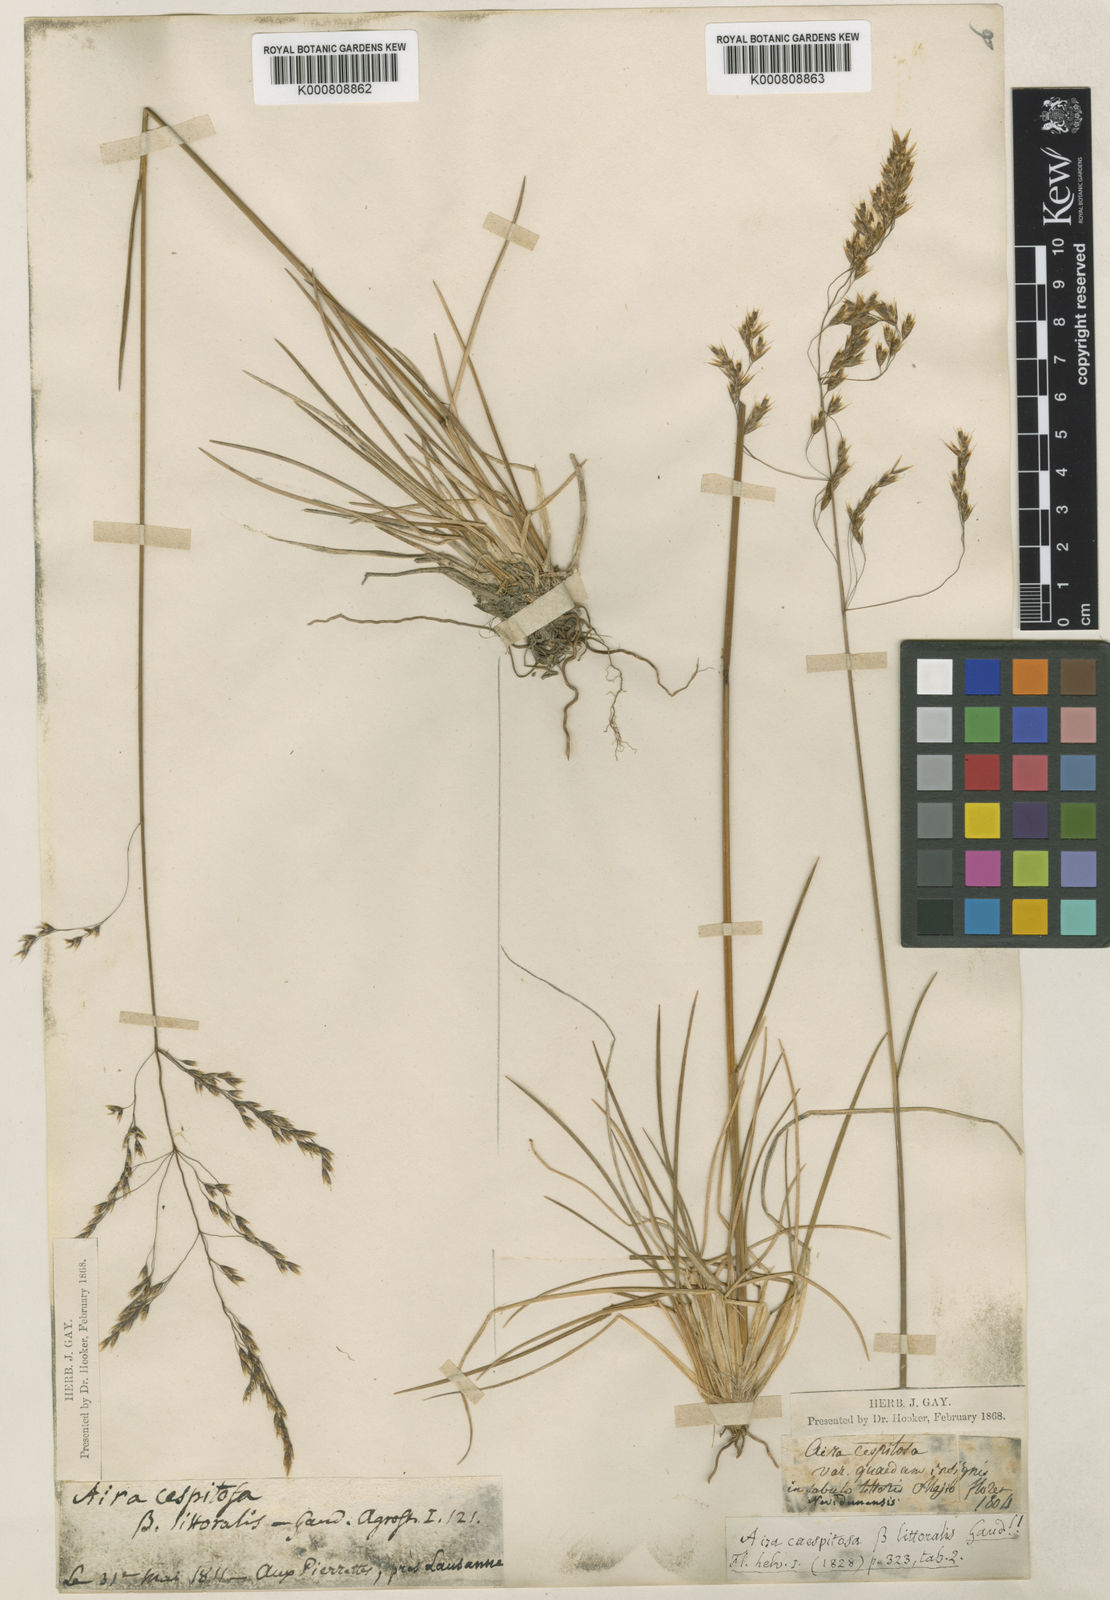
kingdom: Plantae
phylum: Tracheophyta
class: Liliopsida
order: Poales
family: Poaceae
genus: Deschampsia
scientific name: Deschampsia cespitosa
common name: Tufted hair-grass
